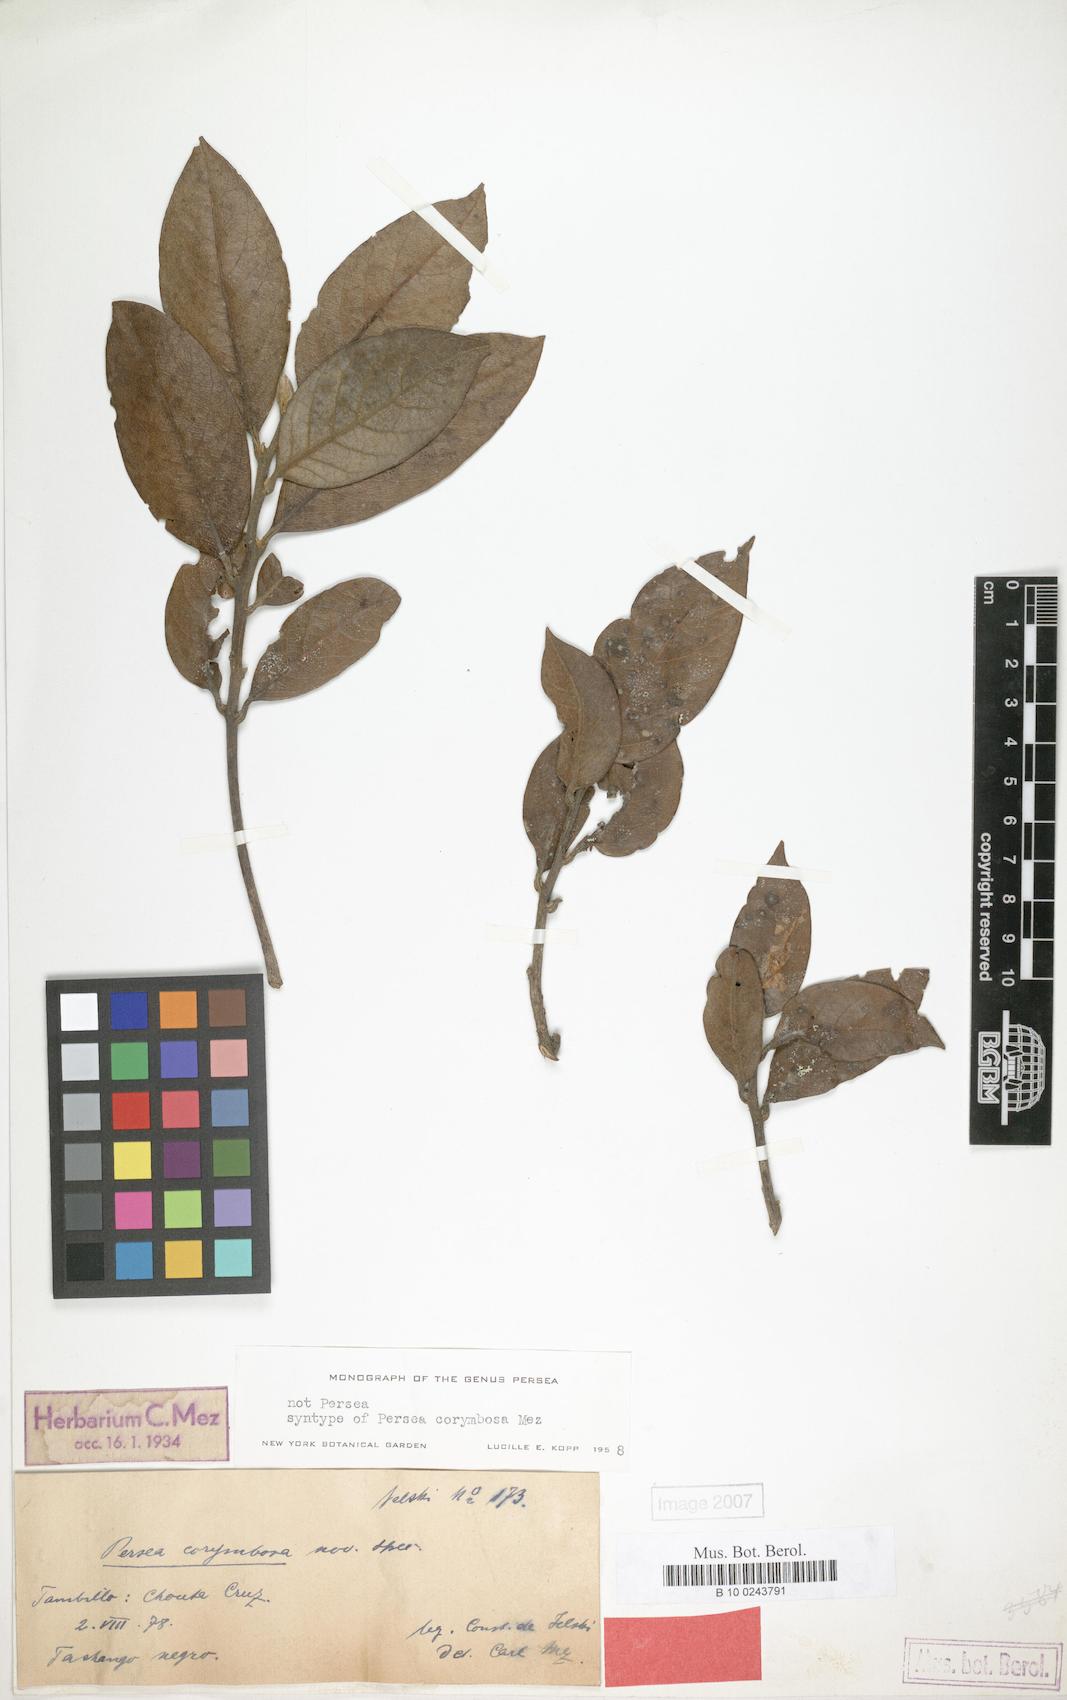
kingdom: Plantae
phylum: Tracheophyta
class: Magnoliopsida
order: Laurales
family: Lauraceae
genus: Persea
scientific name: Persea corymbosa
